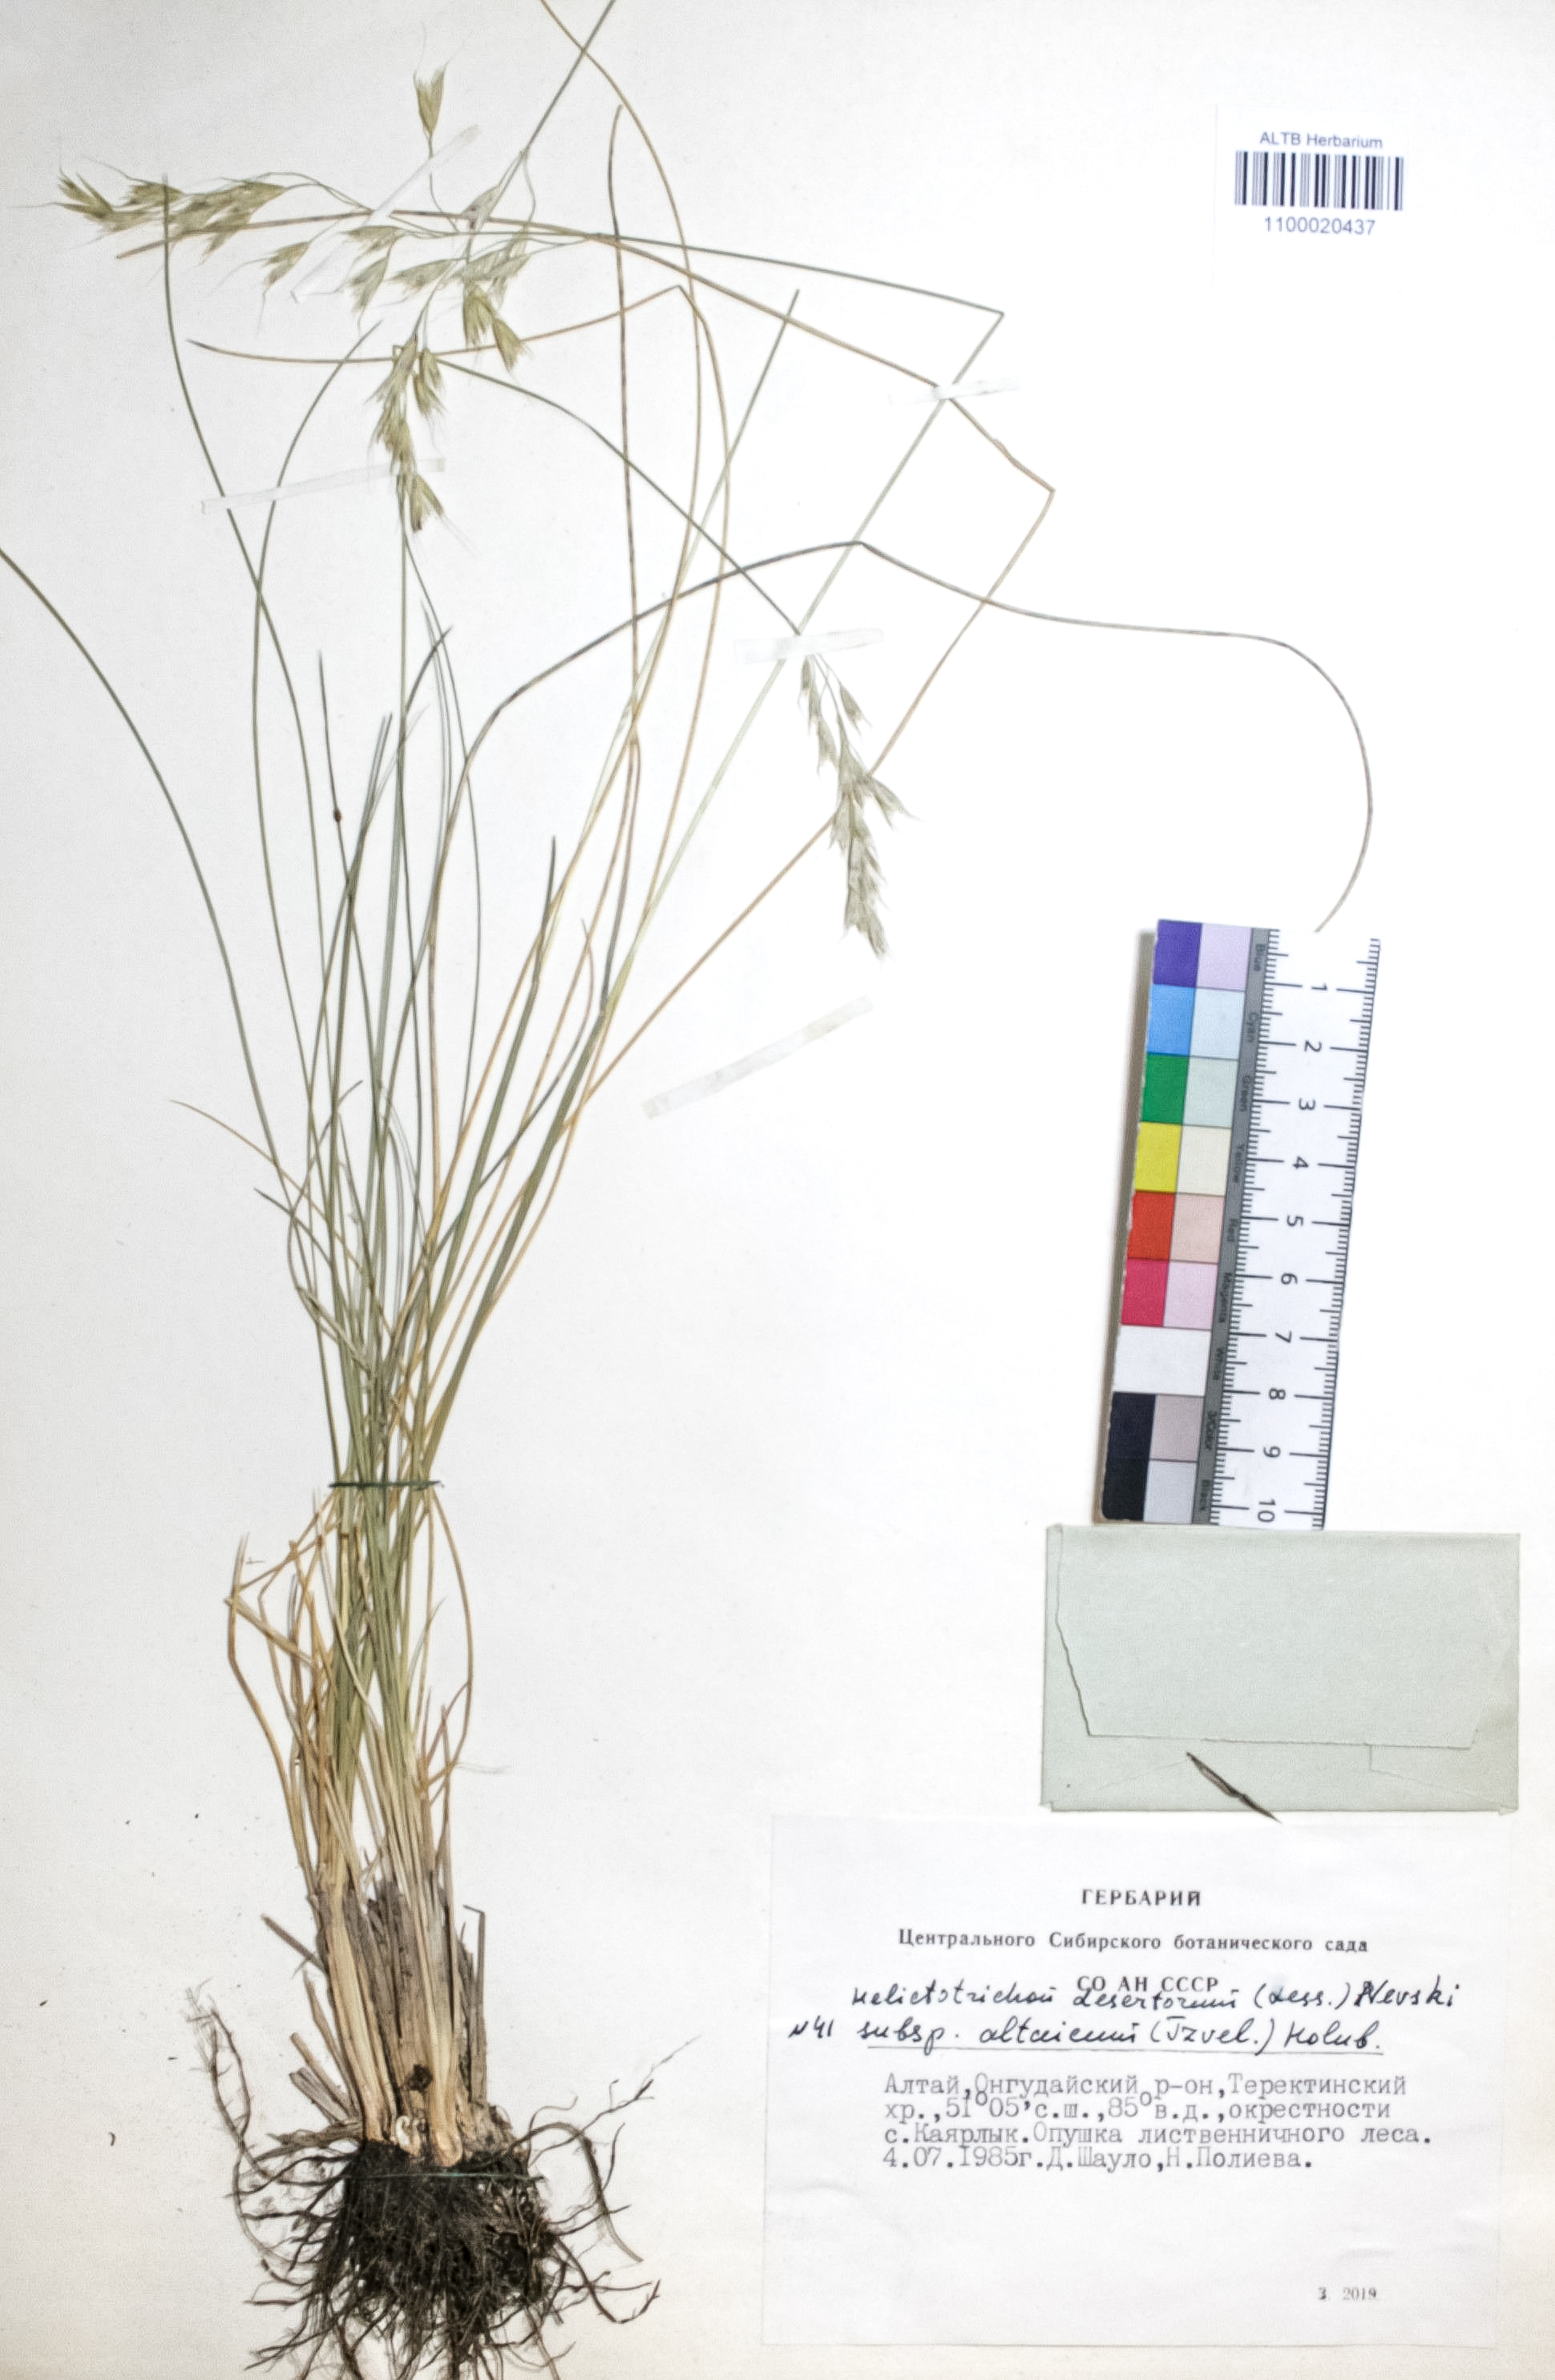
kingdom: Plantae
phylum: Tracheophyta
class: Liliopsida
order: Poales
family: Poaceae
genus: Helictotrichon
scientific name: Helictotrichon desertorum
